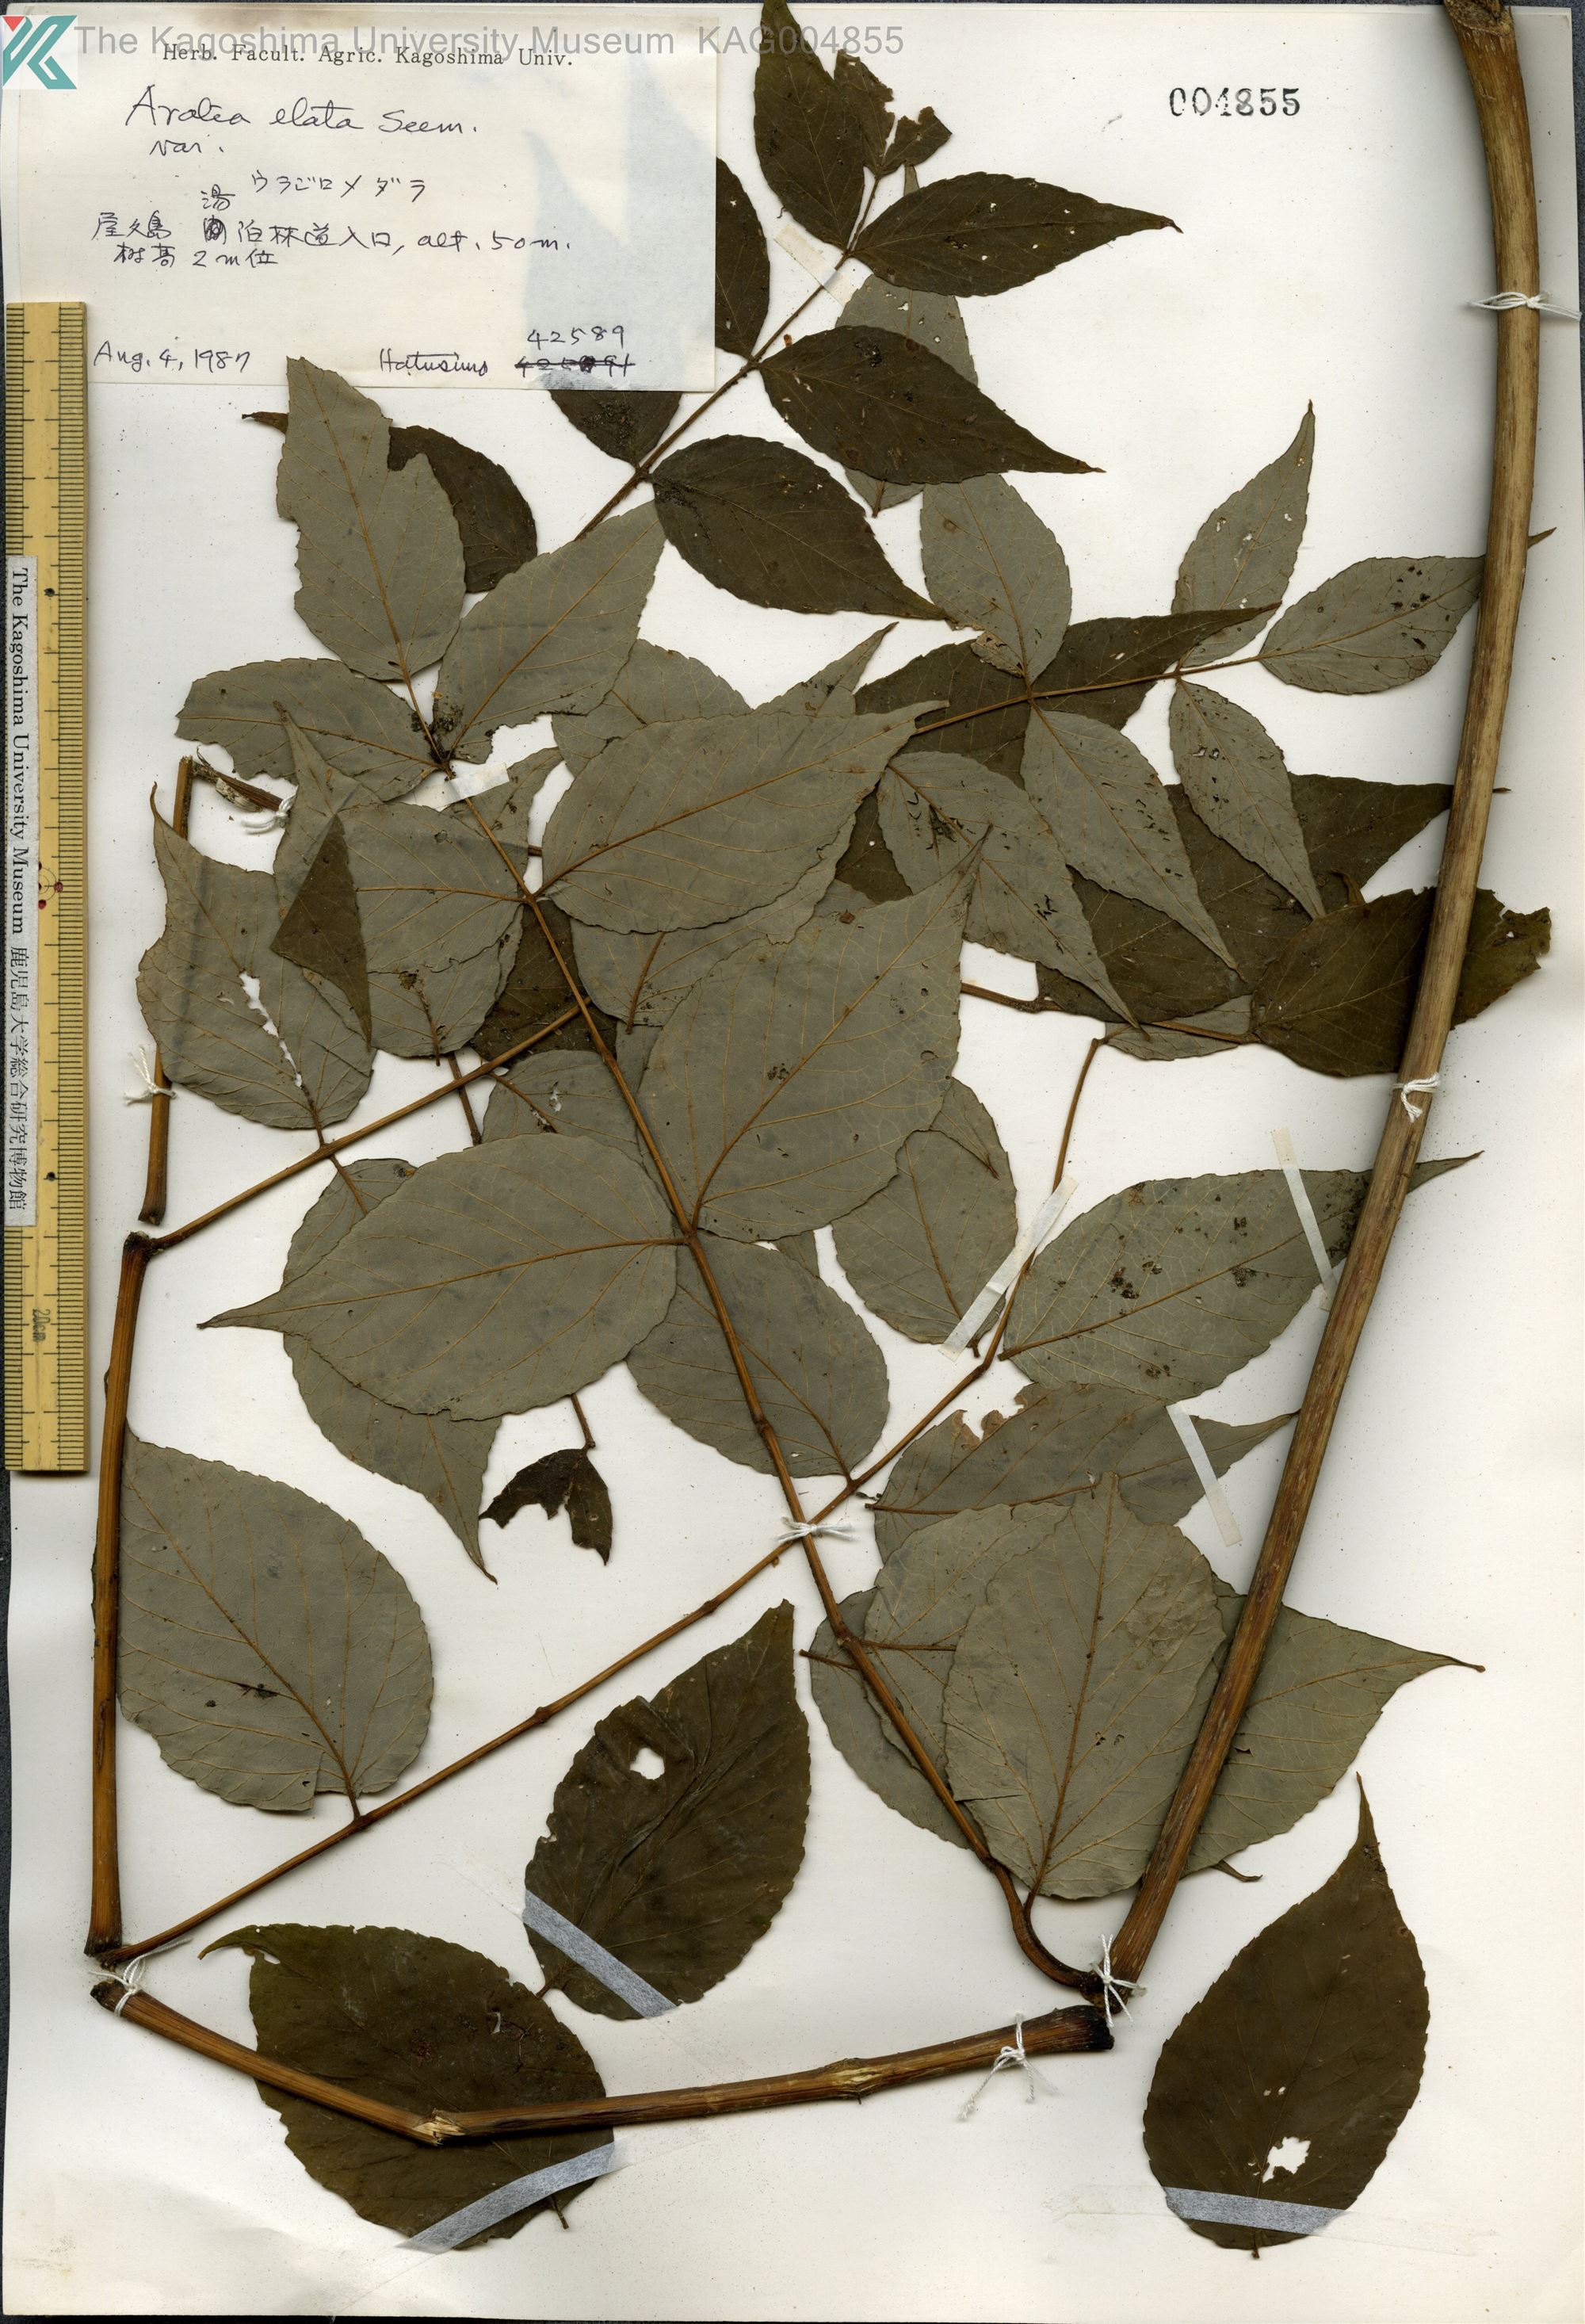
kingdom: Plantae
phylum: Tracheophyta
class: Magnoliopsida
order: Apiales
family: Araliaceae
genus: Aralia
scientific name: Aralia elata
